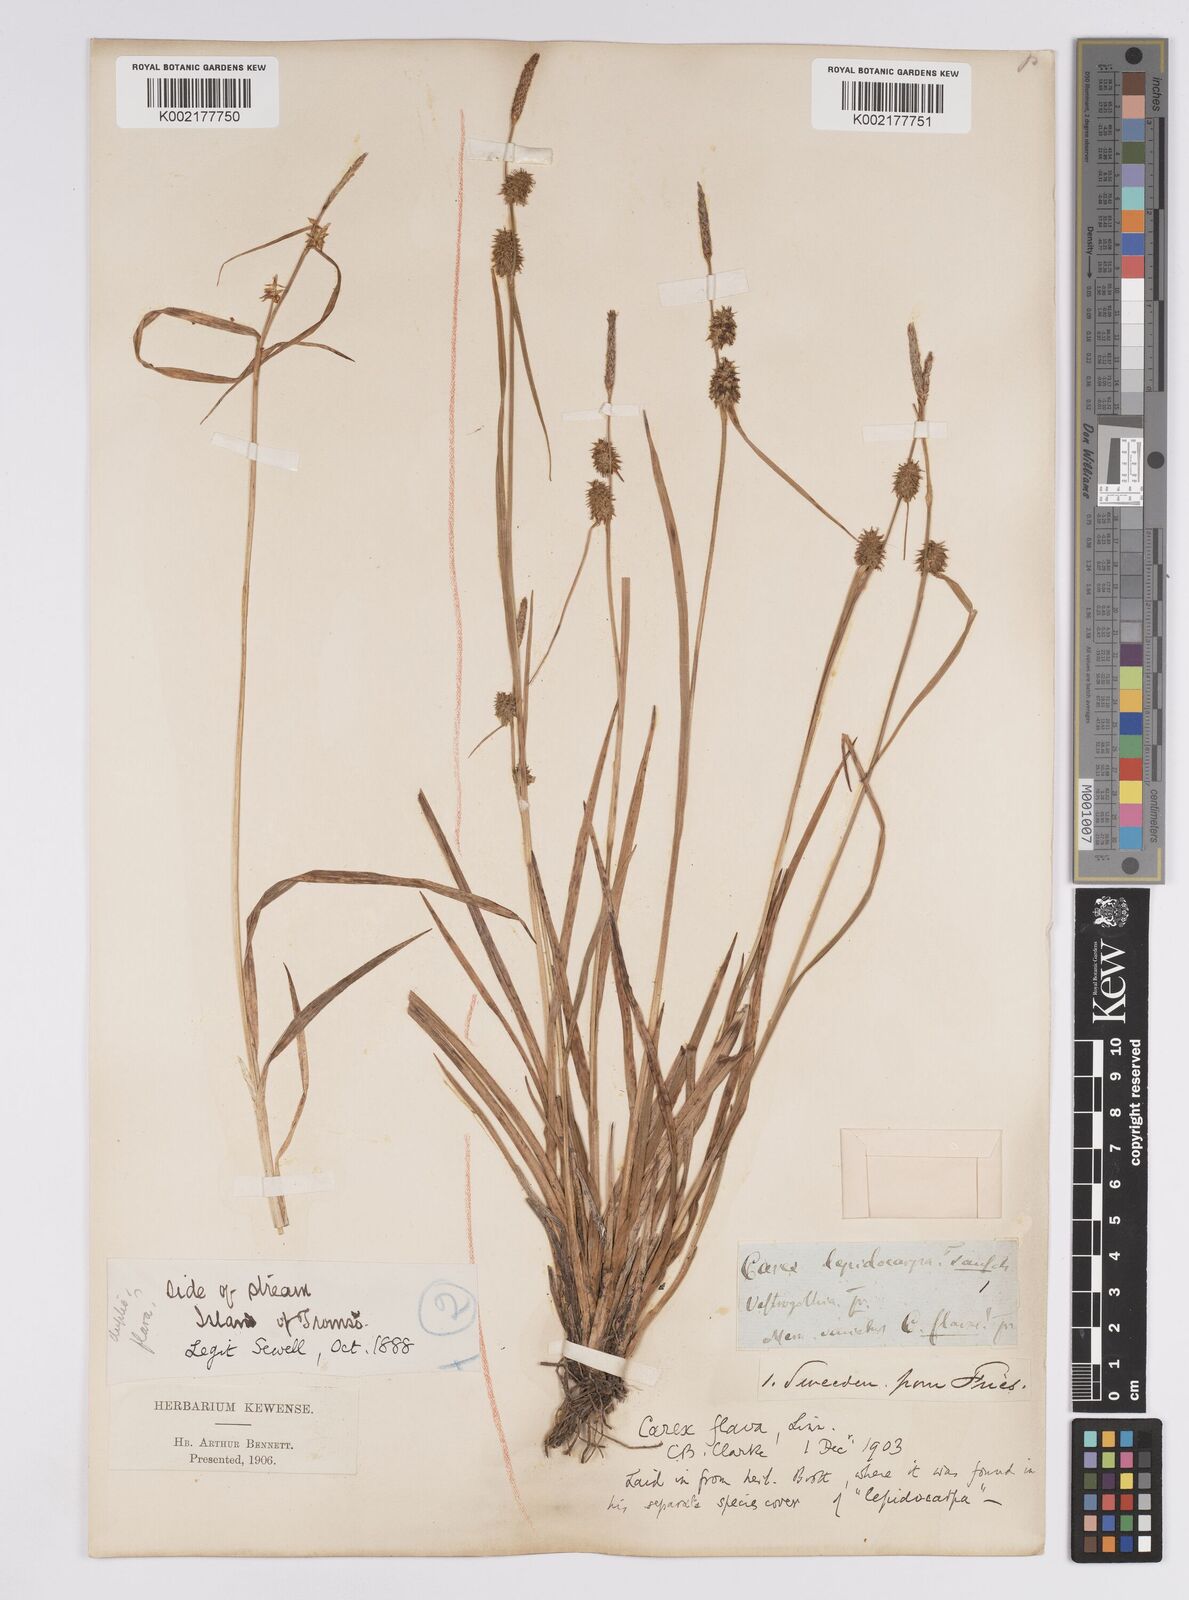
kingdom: Plantae
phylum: Tracheophyta
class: Liliopsida
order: Poales
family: Cyperaceae
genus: Carex
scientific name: Carex flava
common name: Large yellow-sedge
